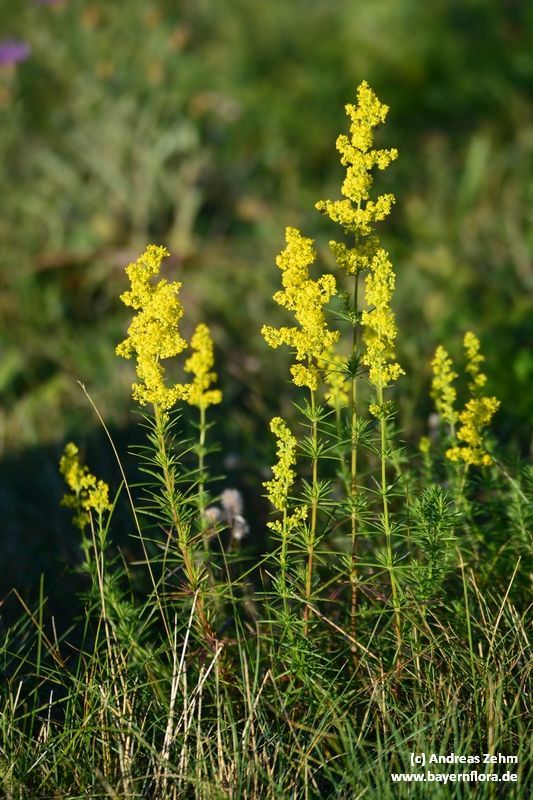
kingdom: Plantae
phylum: Tracheophyta
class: Magnoliopsida
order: Gentianales
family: Rubiaceae
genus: Galium
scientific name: Galium verum
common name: Lady's bedstraw
